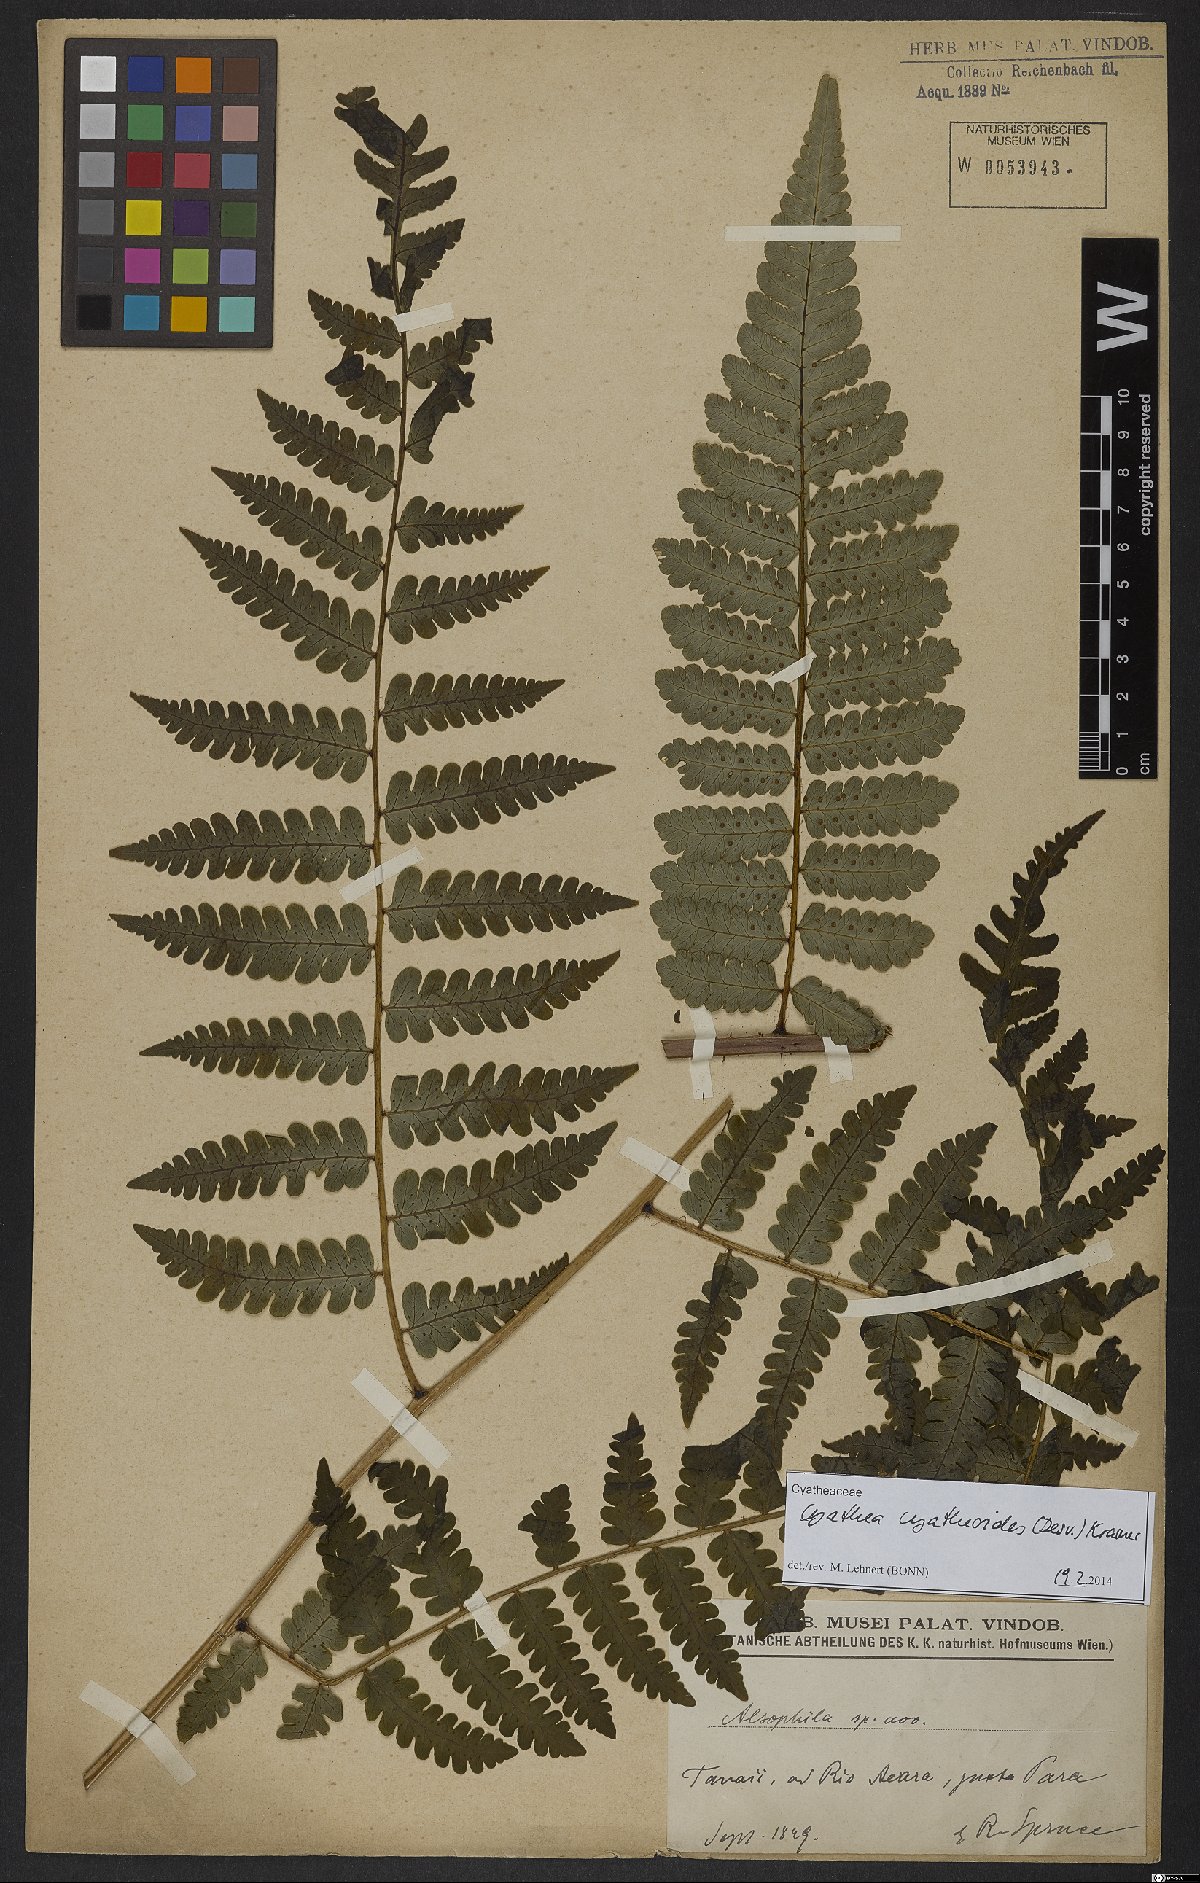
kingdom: Plantae
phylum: Tracheophyta
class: Polypodiopsida
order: Cyatheales
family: Cyatheaceae
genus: Cyathea
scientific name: Cyathea cyatheoides
